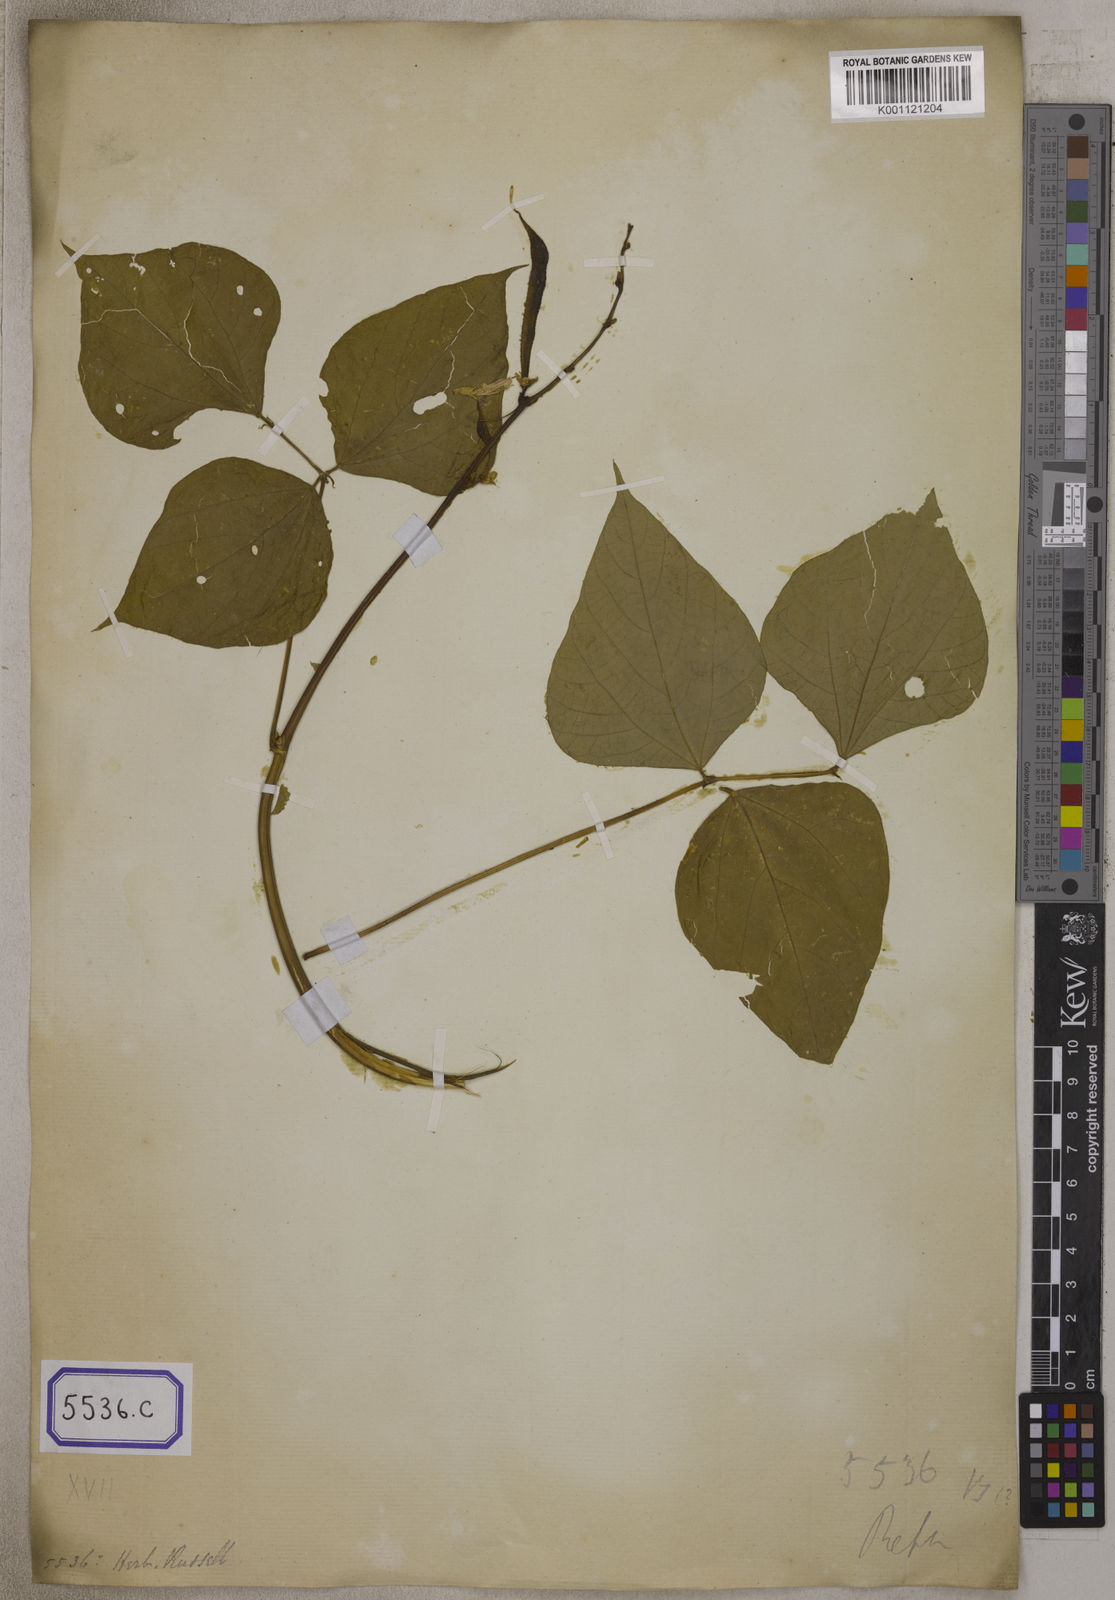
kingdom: Plantae
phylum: Tracheophyta
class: Magnoliopsida
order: Fabales
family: Fabaceae
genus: Lablab
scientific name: Lablab purpureus
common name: Lablab-bean
